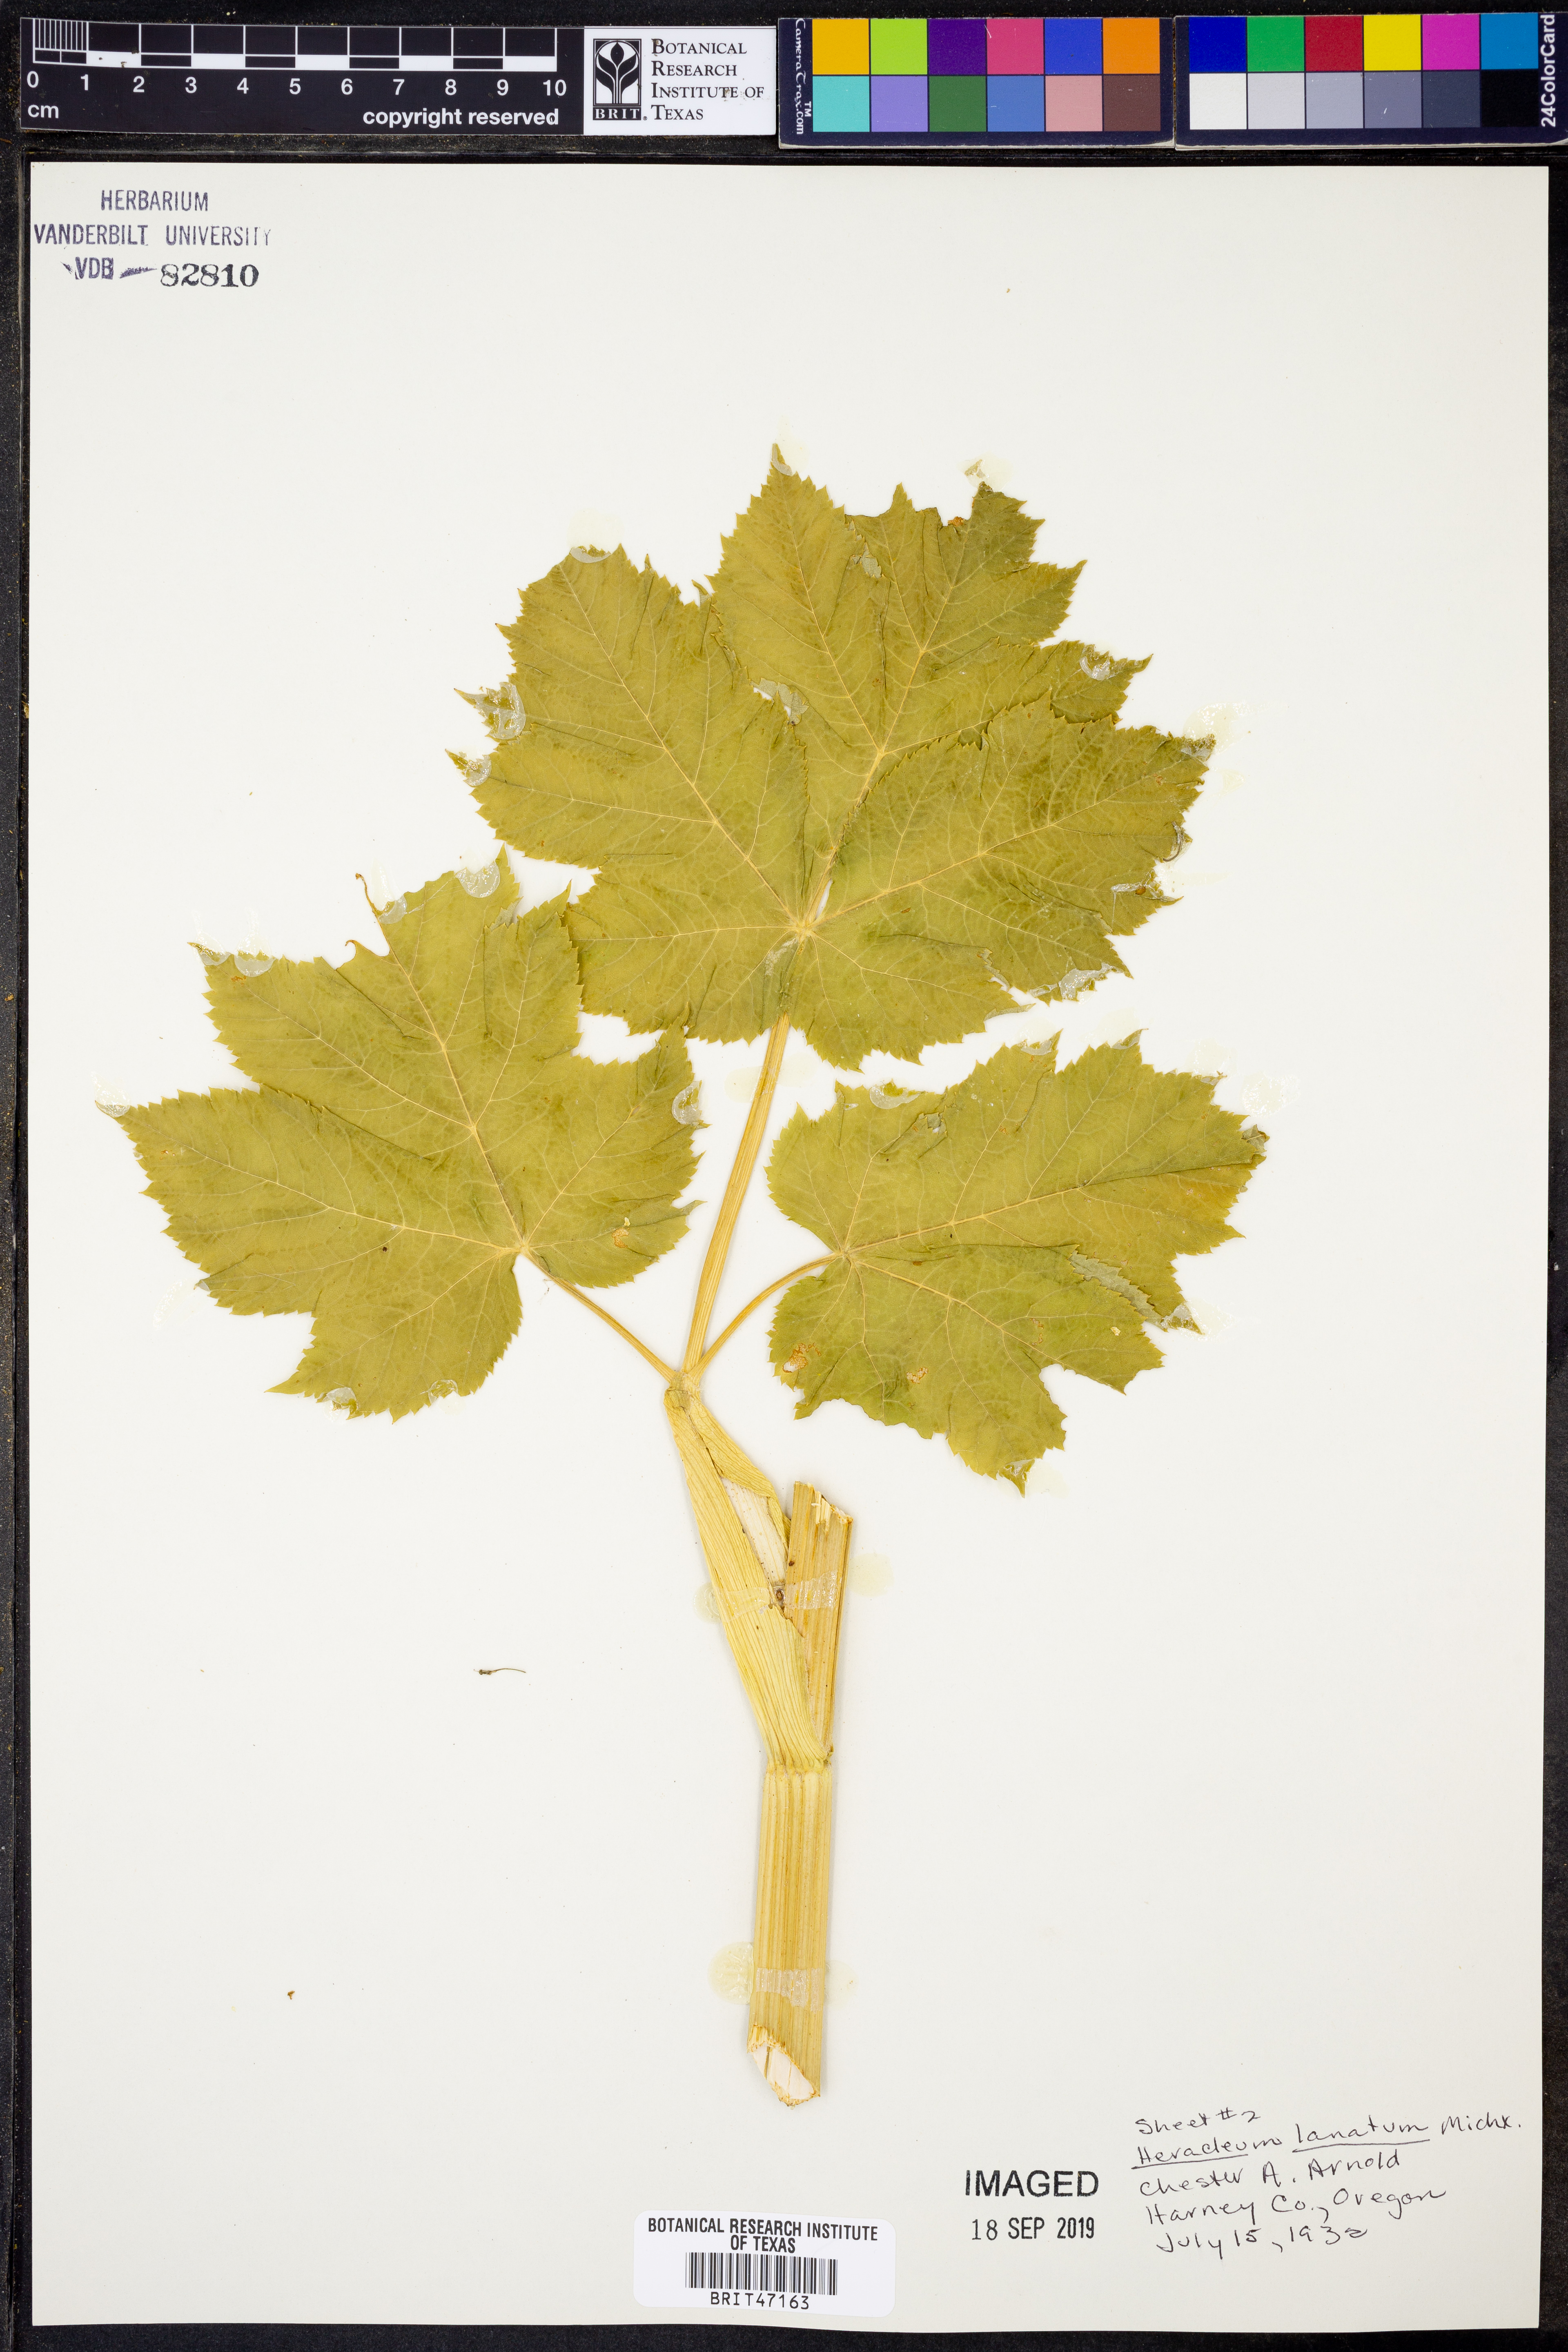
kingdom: Plantae
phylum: Tracheophyta
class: Magnoliopsida
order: Apiales
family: Apiaceae
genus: Heracleum
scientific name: Heracleum maximum
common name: American cow parsnip
